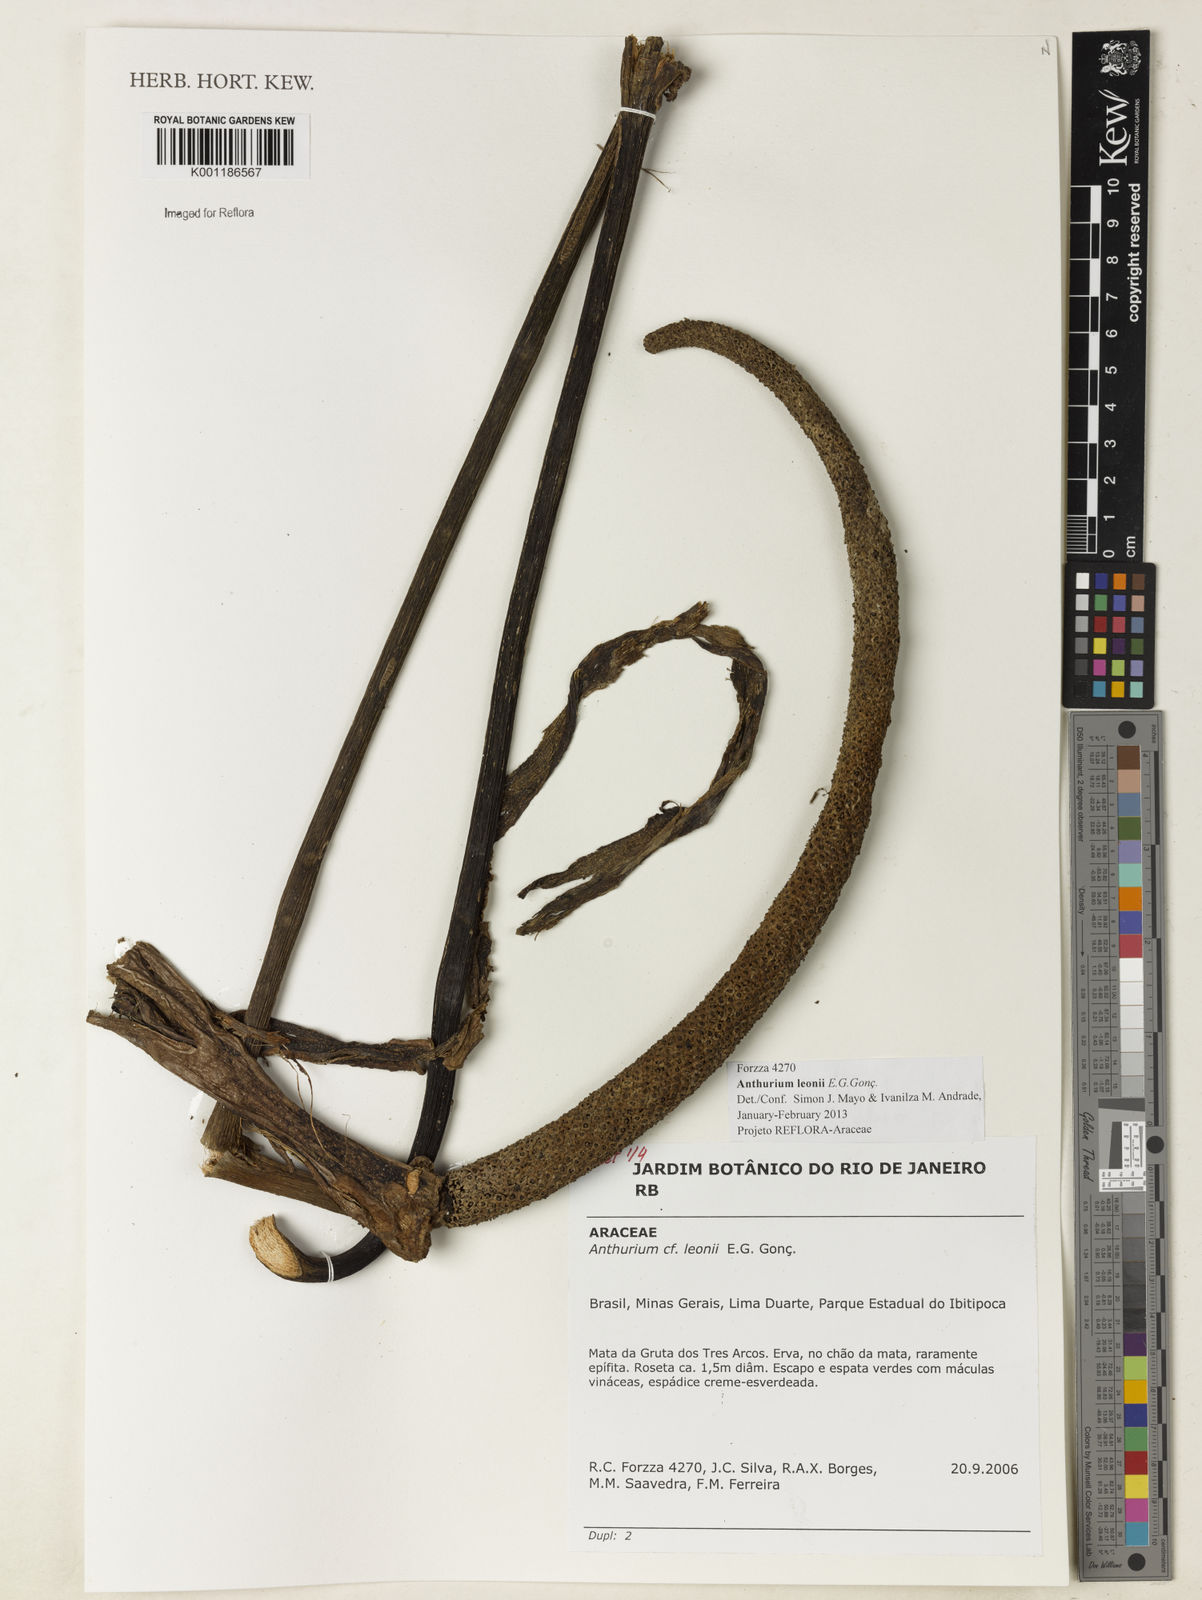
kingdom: Plantae
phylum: Tracheophyta
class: Liliopsida
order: Alismatales
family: Araceae
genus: Anthurium
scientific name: Anthurium leonii
